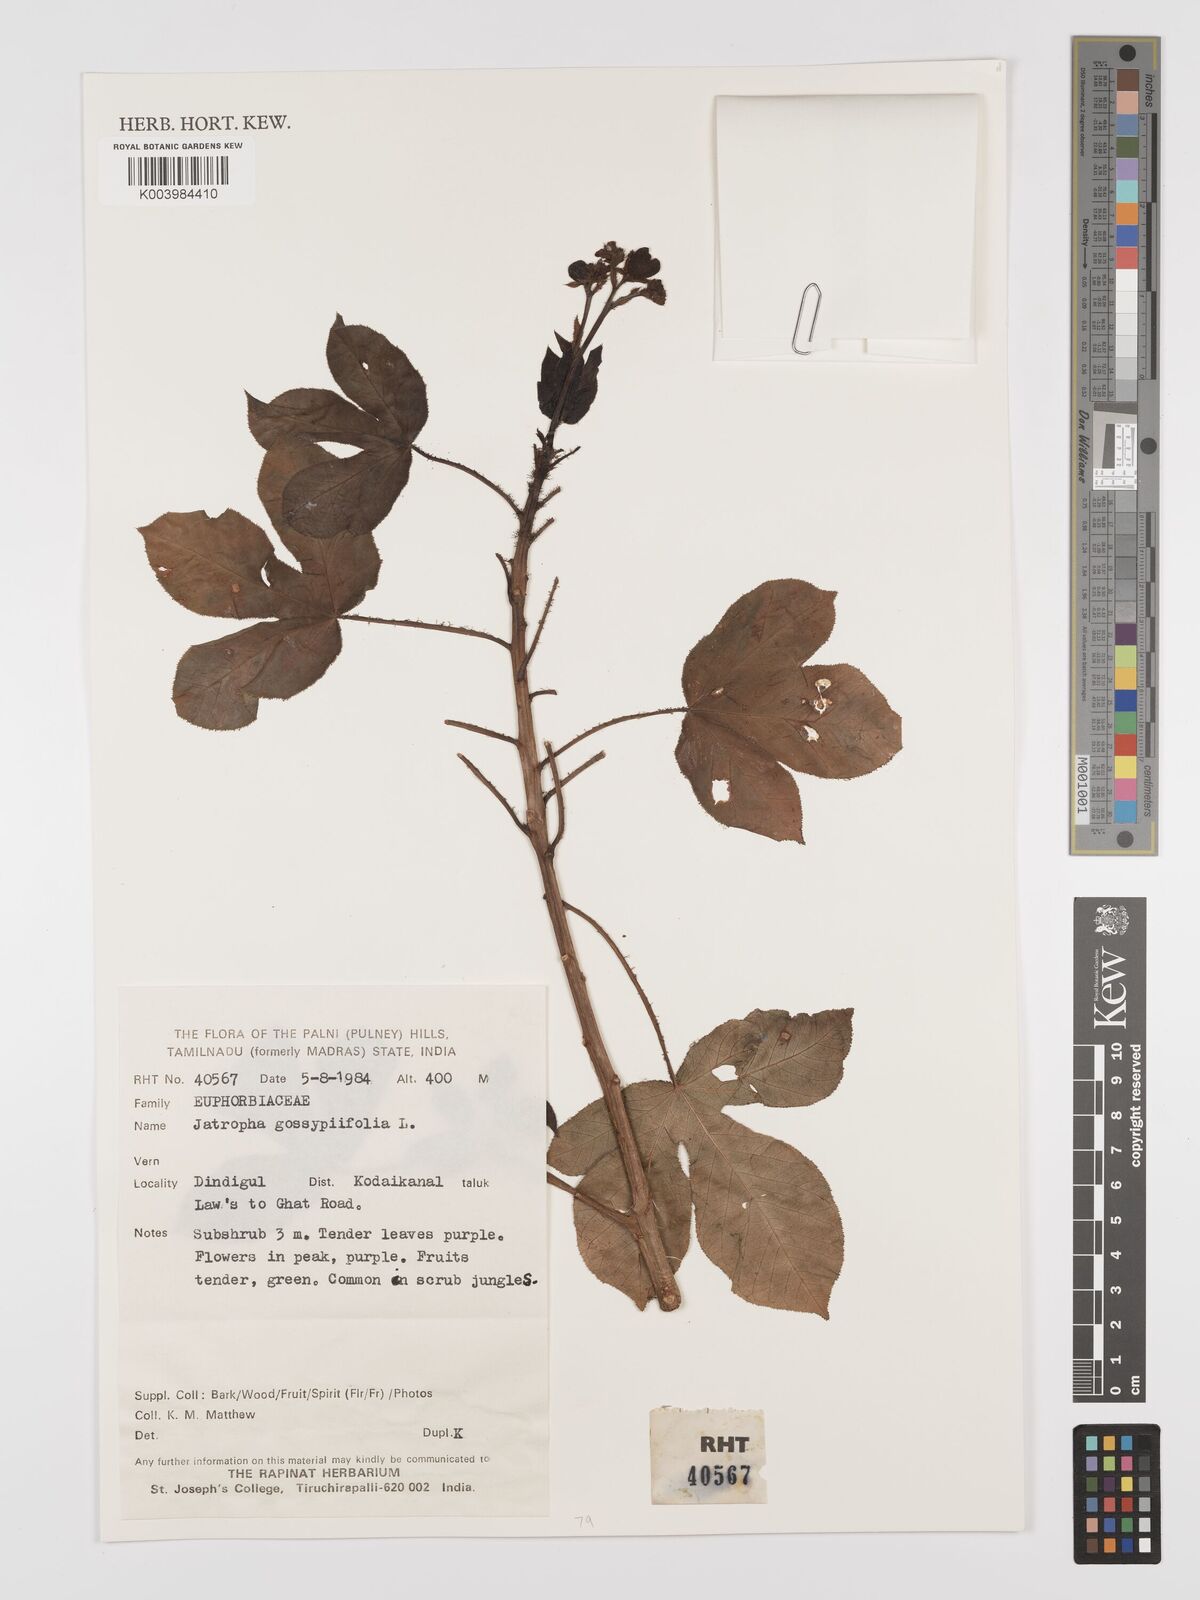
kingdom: Plantae
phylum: Tracheophyta
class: Magnoliopsida
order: Malpighiales
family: Euphorbiaceae
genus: Jatropha
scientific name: Jatropha gossypiifolia
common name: Bellyache bush
